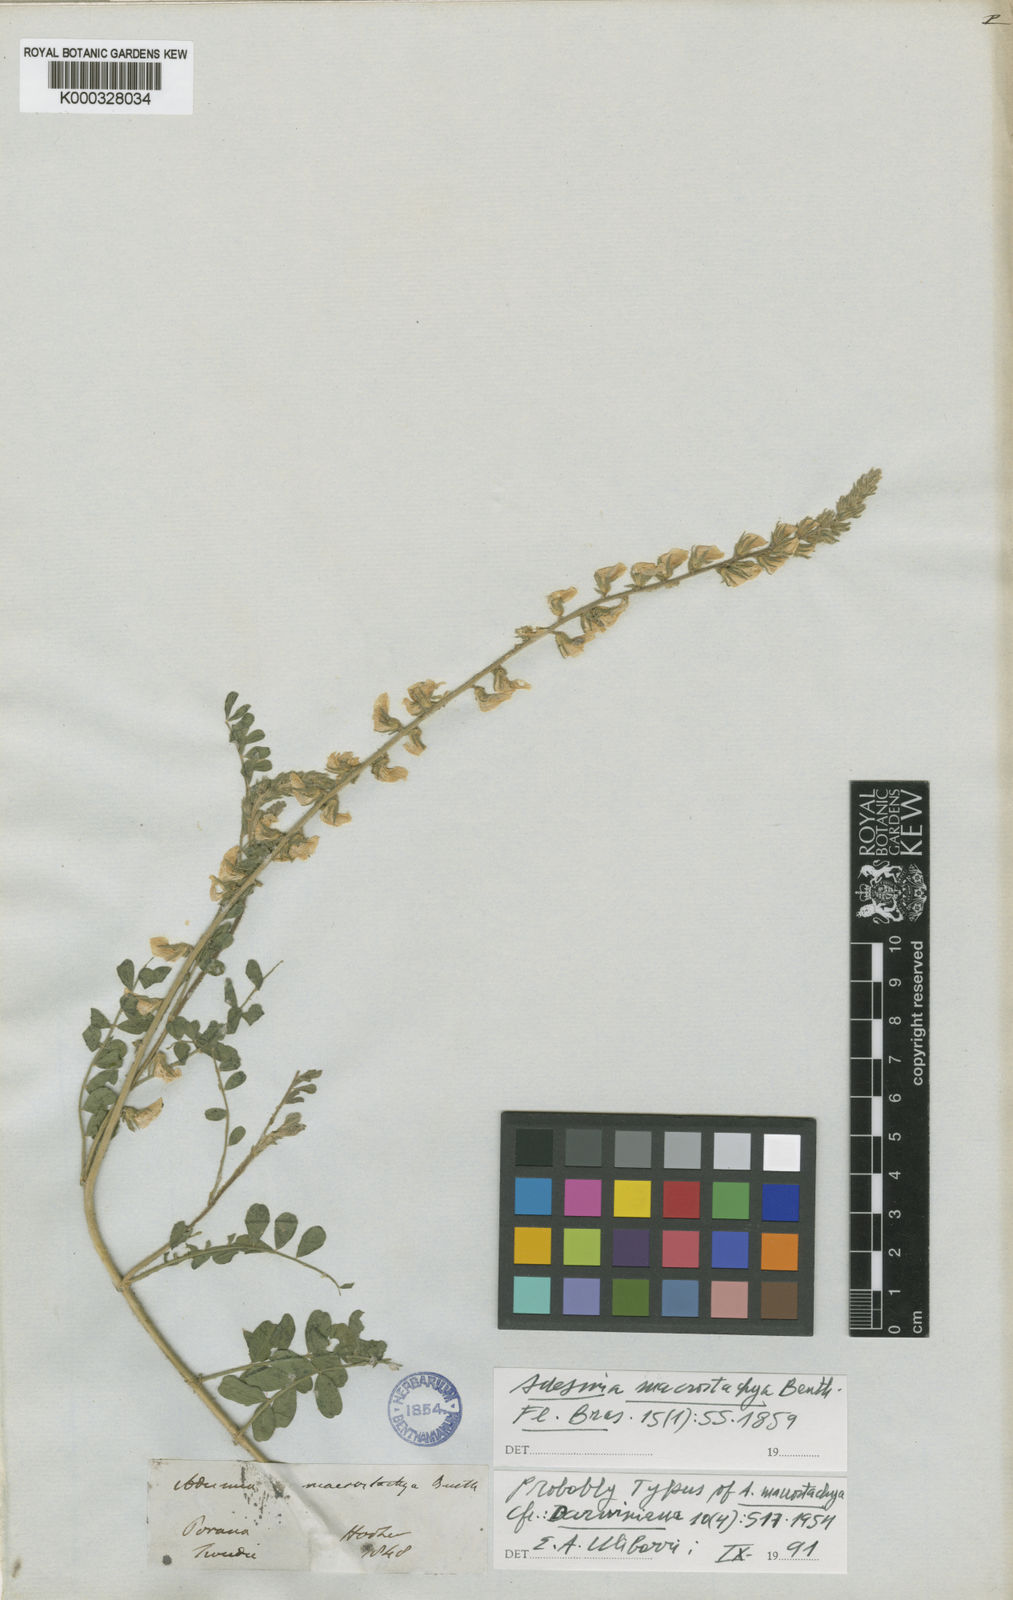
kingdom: Plantae
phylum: Tracheophyta
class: Magnoliopsida
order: Fabales
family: Fabaceae
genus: Adesmia
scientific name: Adesmia macrostachya
